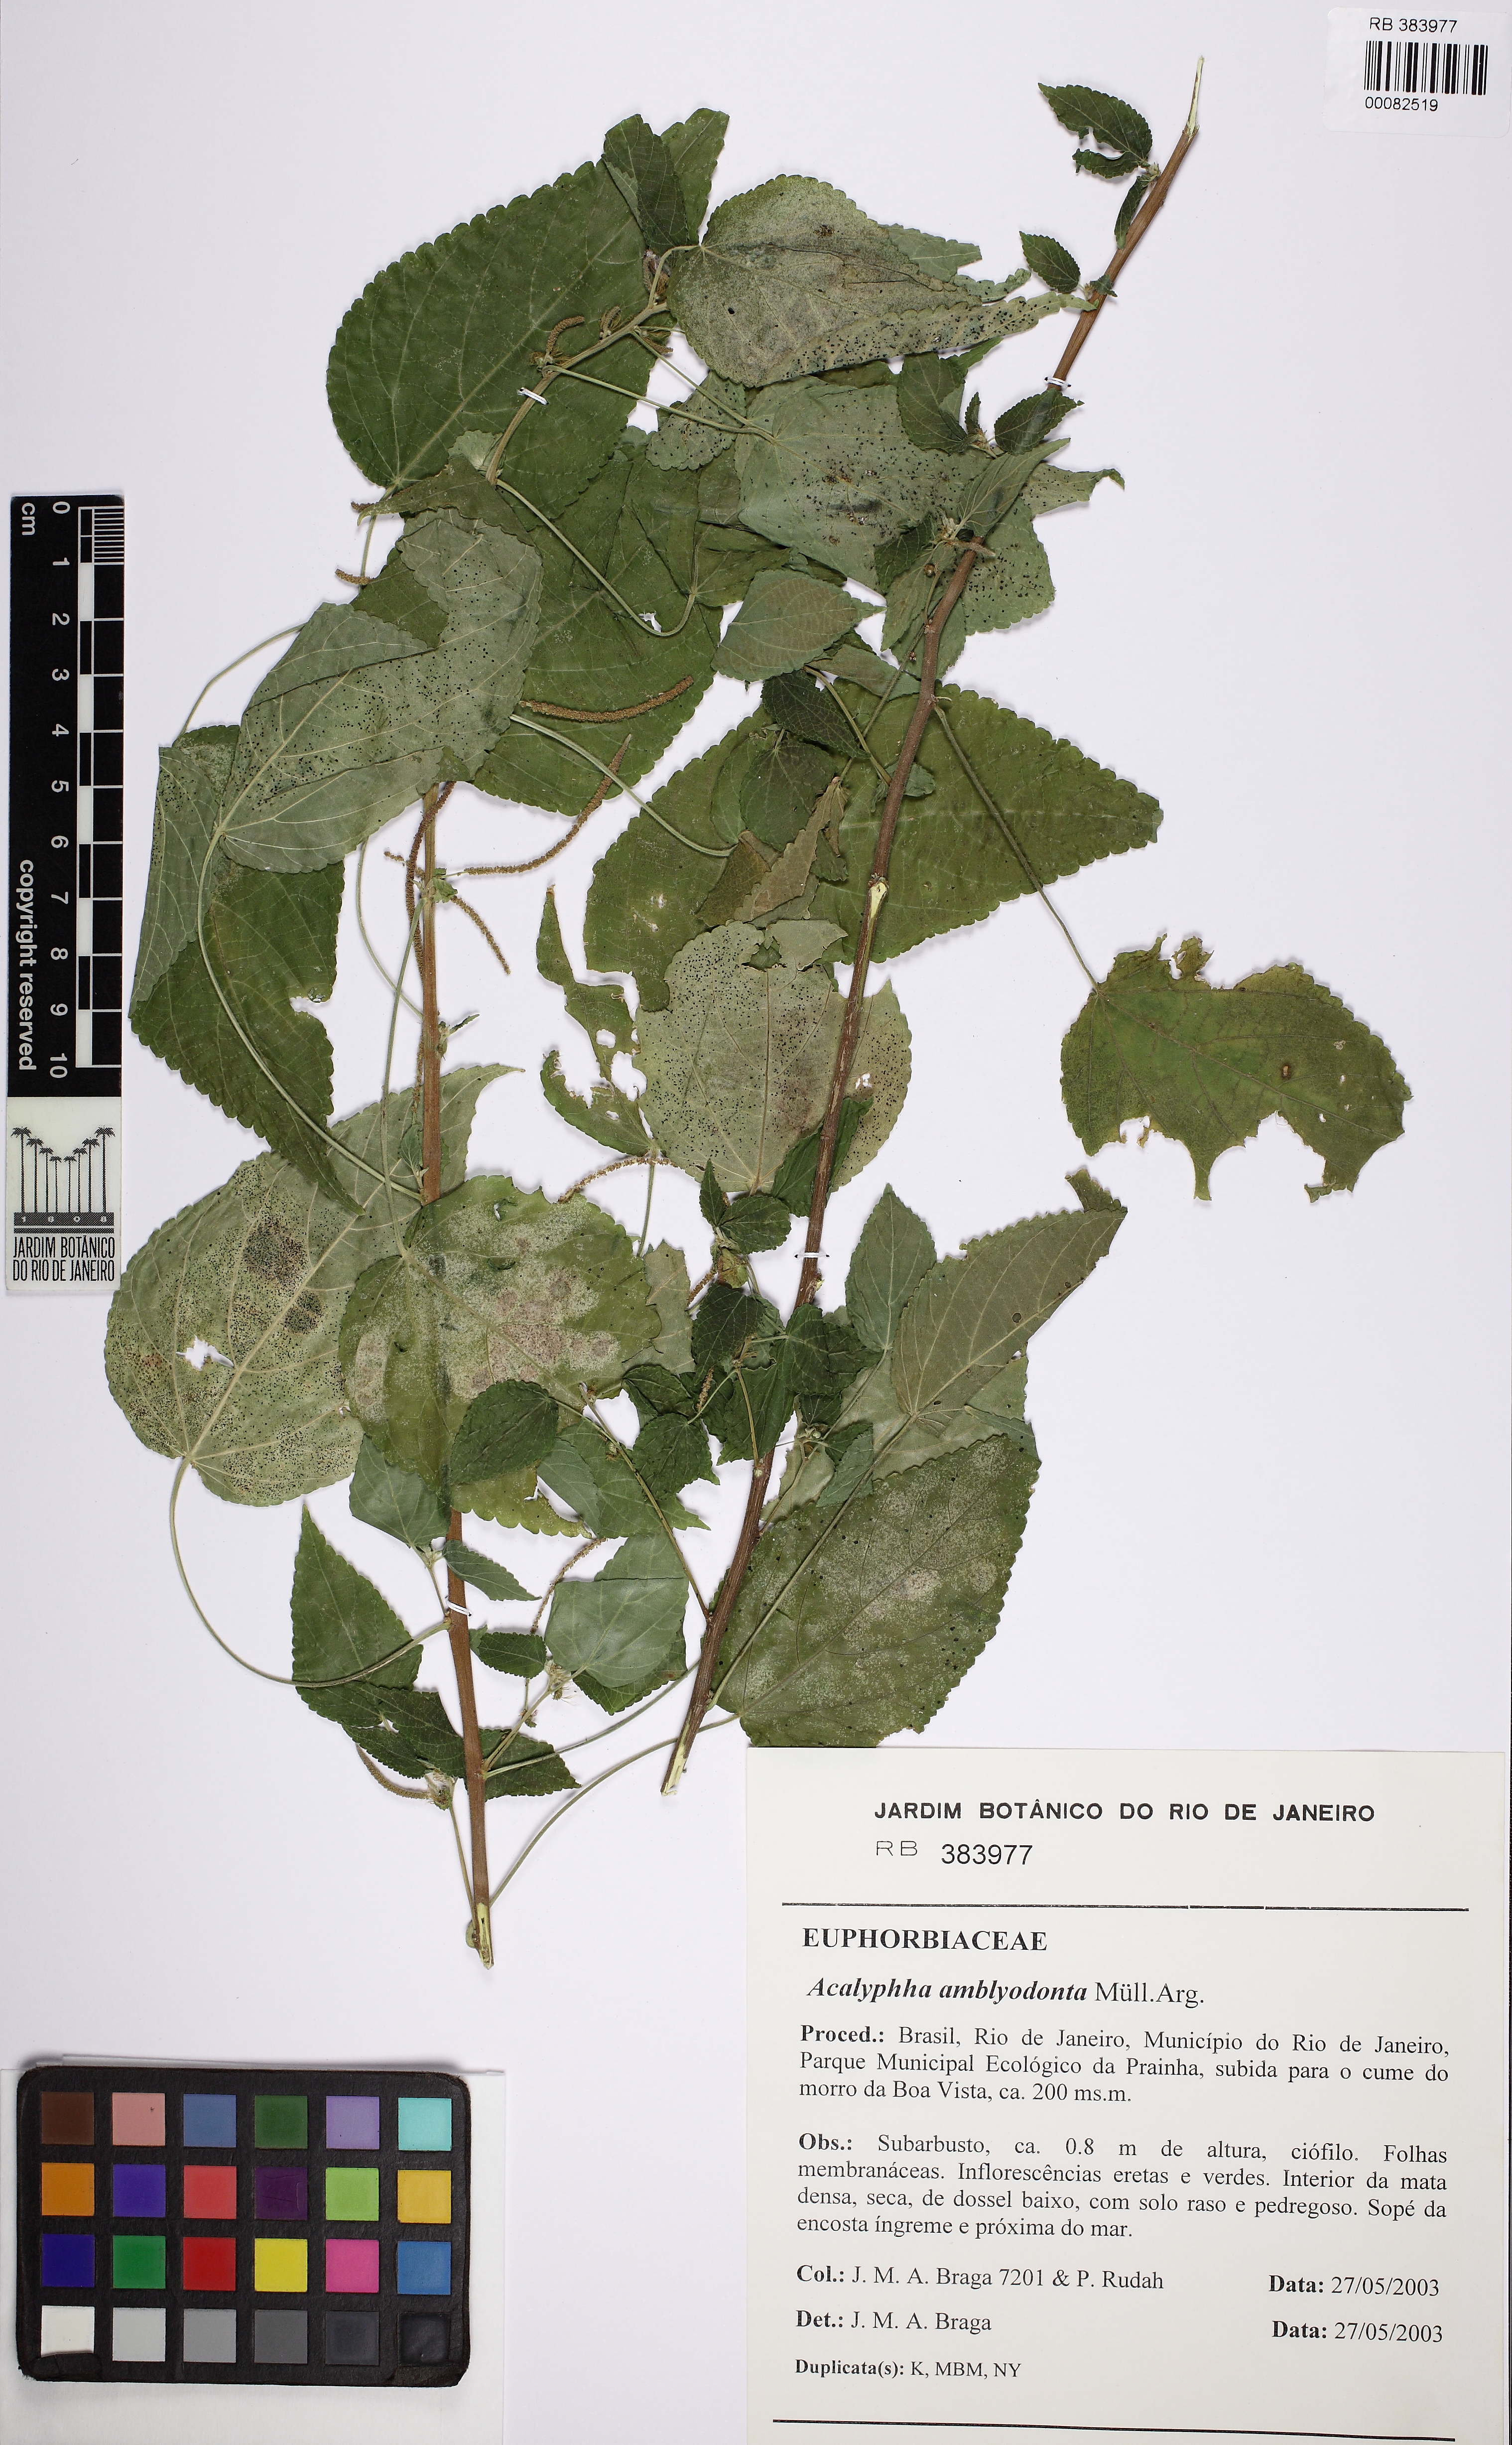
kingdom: Plantae
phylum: Tracheophyta
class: Magnoliopsida
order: Malpighiales
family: Euphorbiaceae
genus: Acalypha
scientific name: Acalypha amblyodonta
